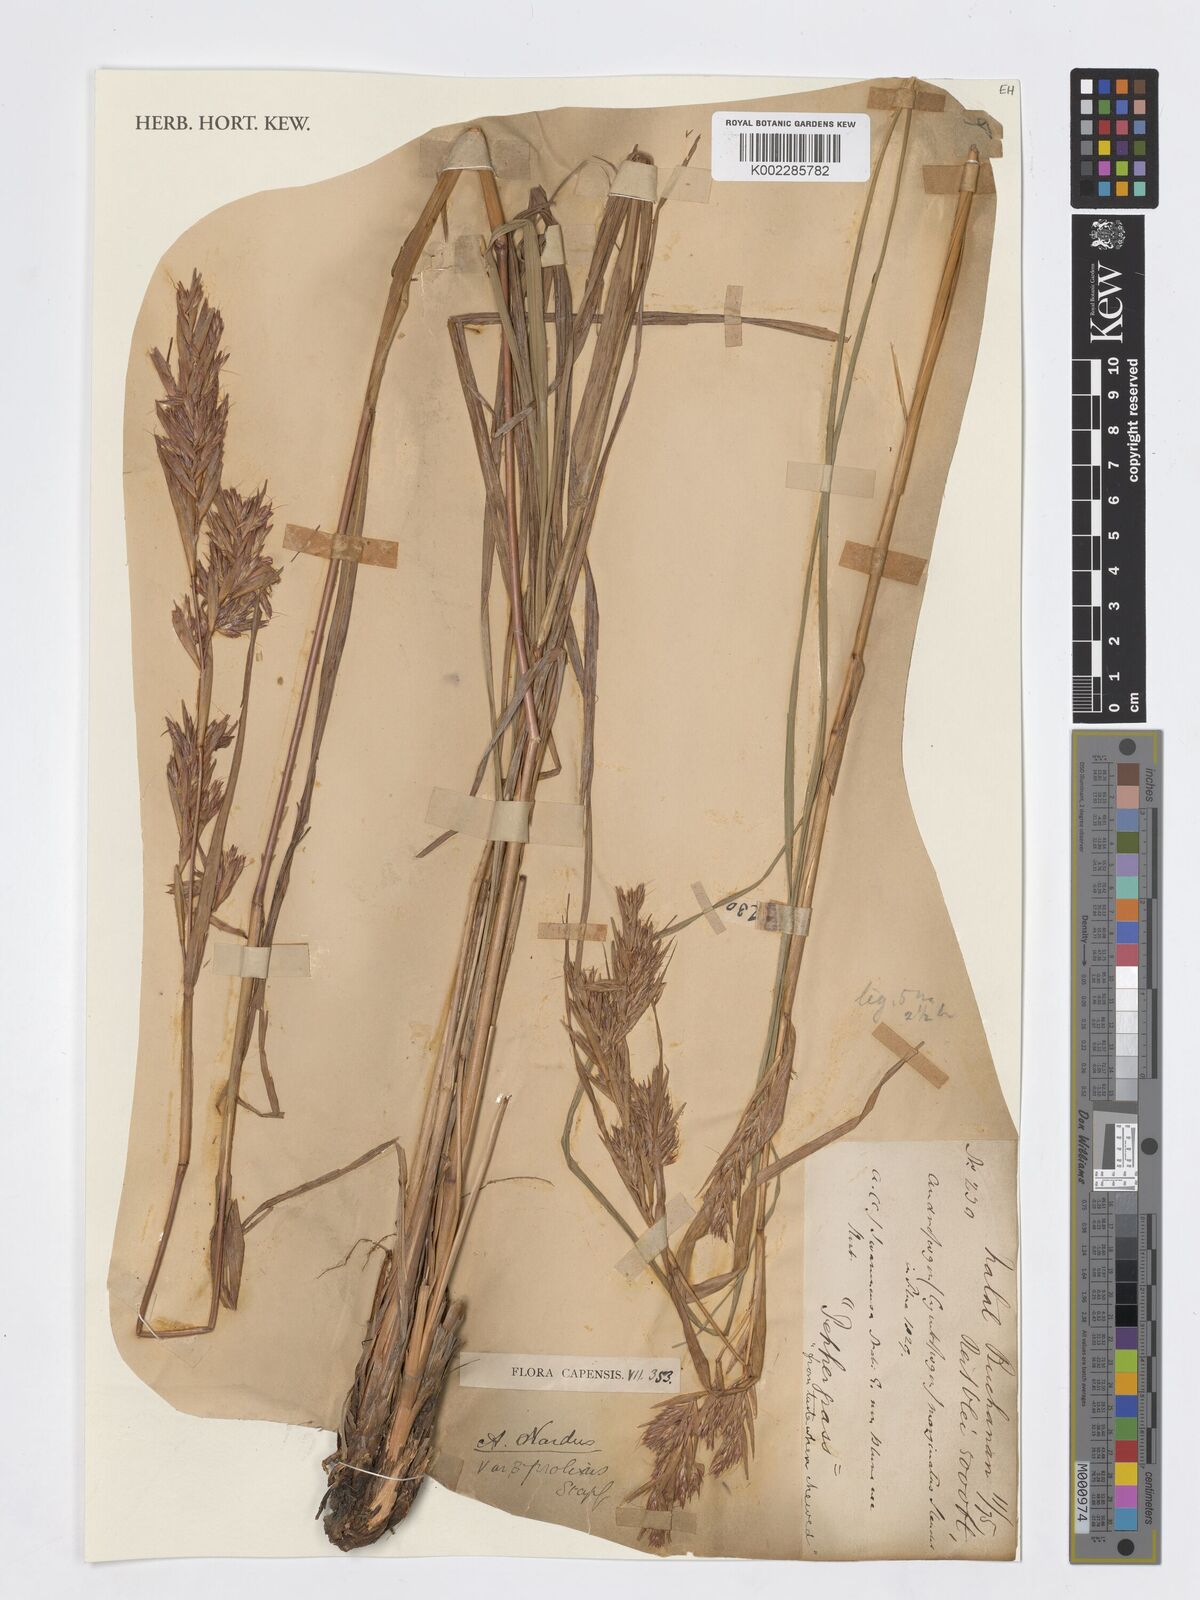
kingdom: Plantae
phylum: Tracheophyta
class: Liliopsida
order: Poales
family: Poaceae
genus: Cymbopogon
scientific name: Cymbopogon marginatus
